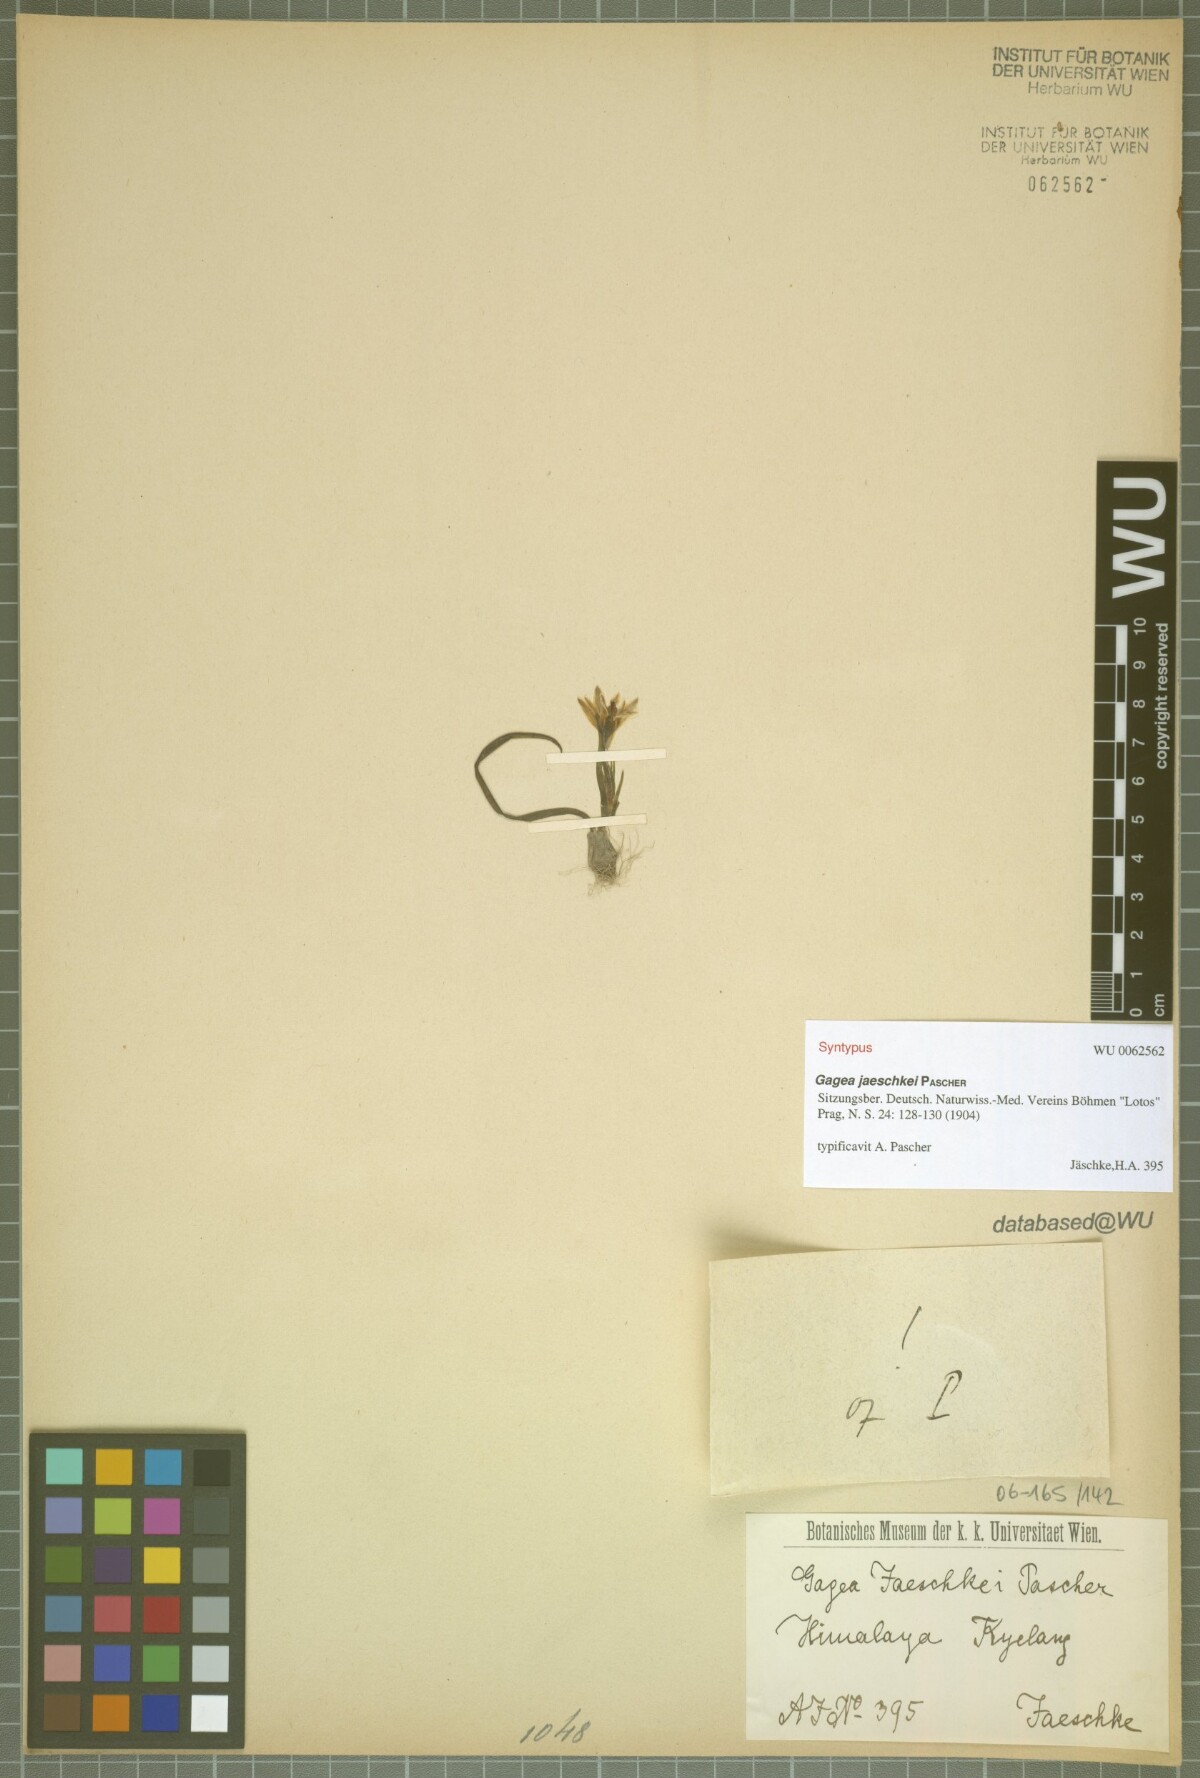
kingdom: Plantae
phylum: Tracheophyta
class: Liliopsida
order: Liliales
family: Liliaceae
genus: Gagea
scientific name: Gagea jaeschkei
